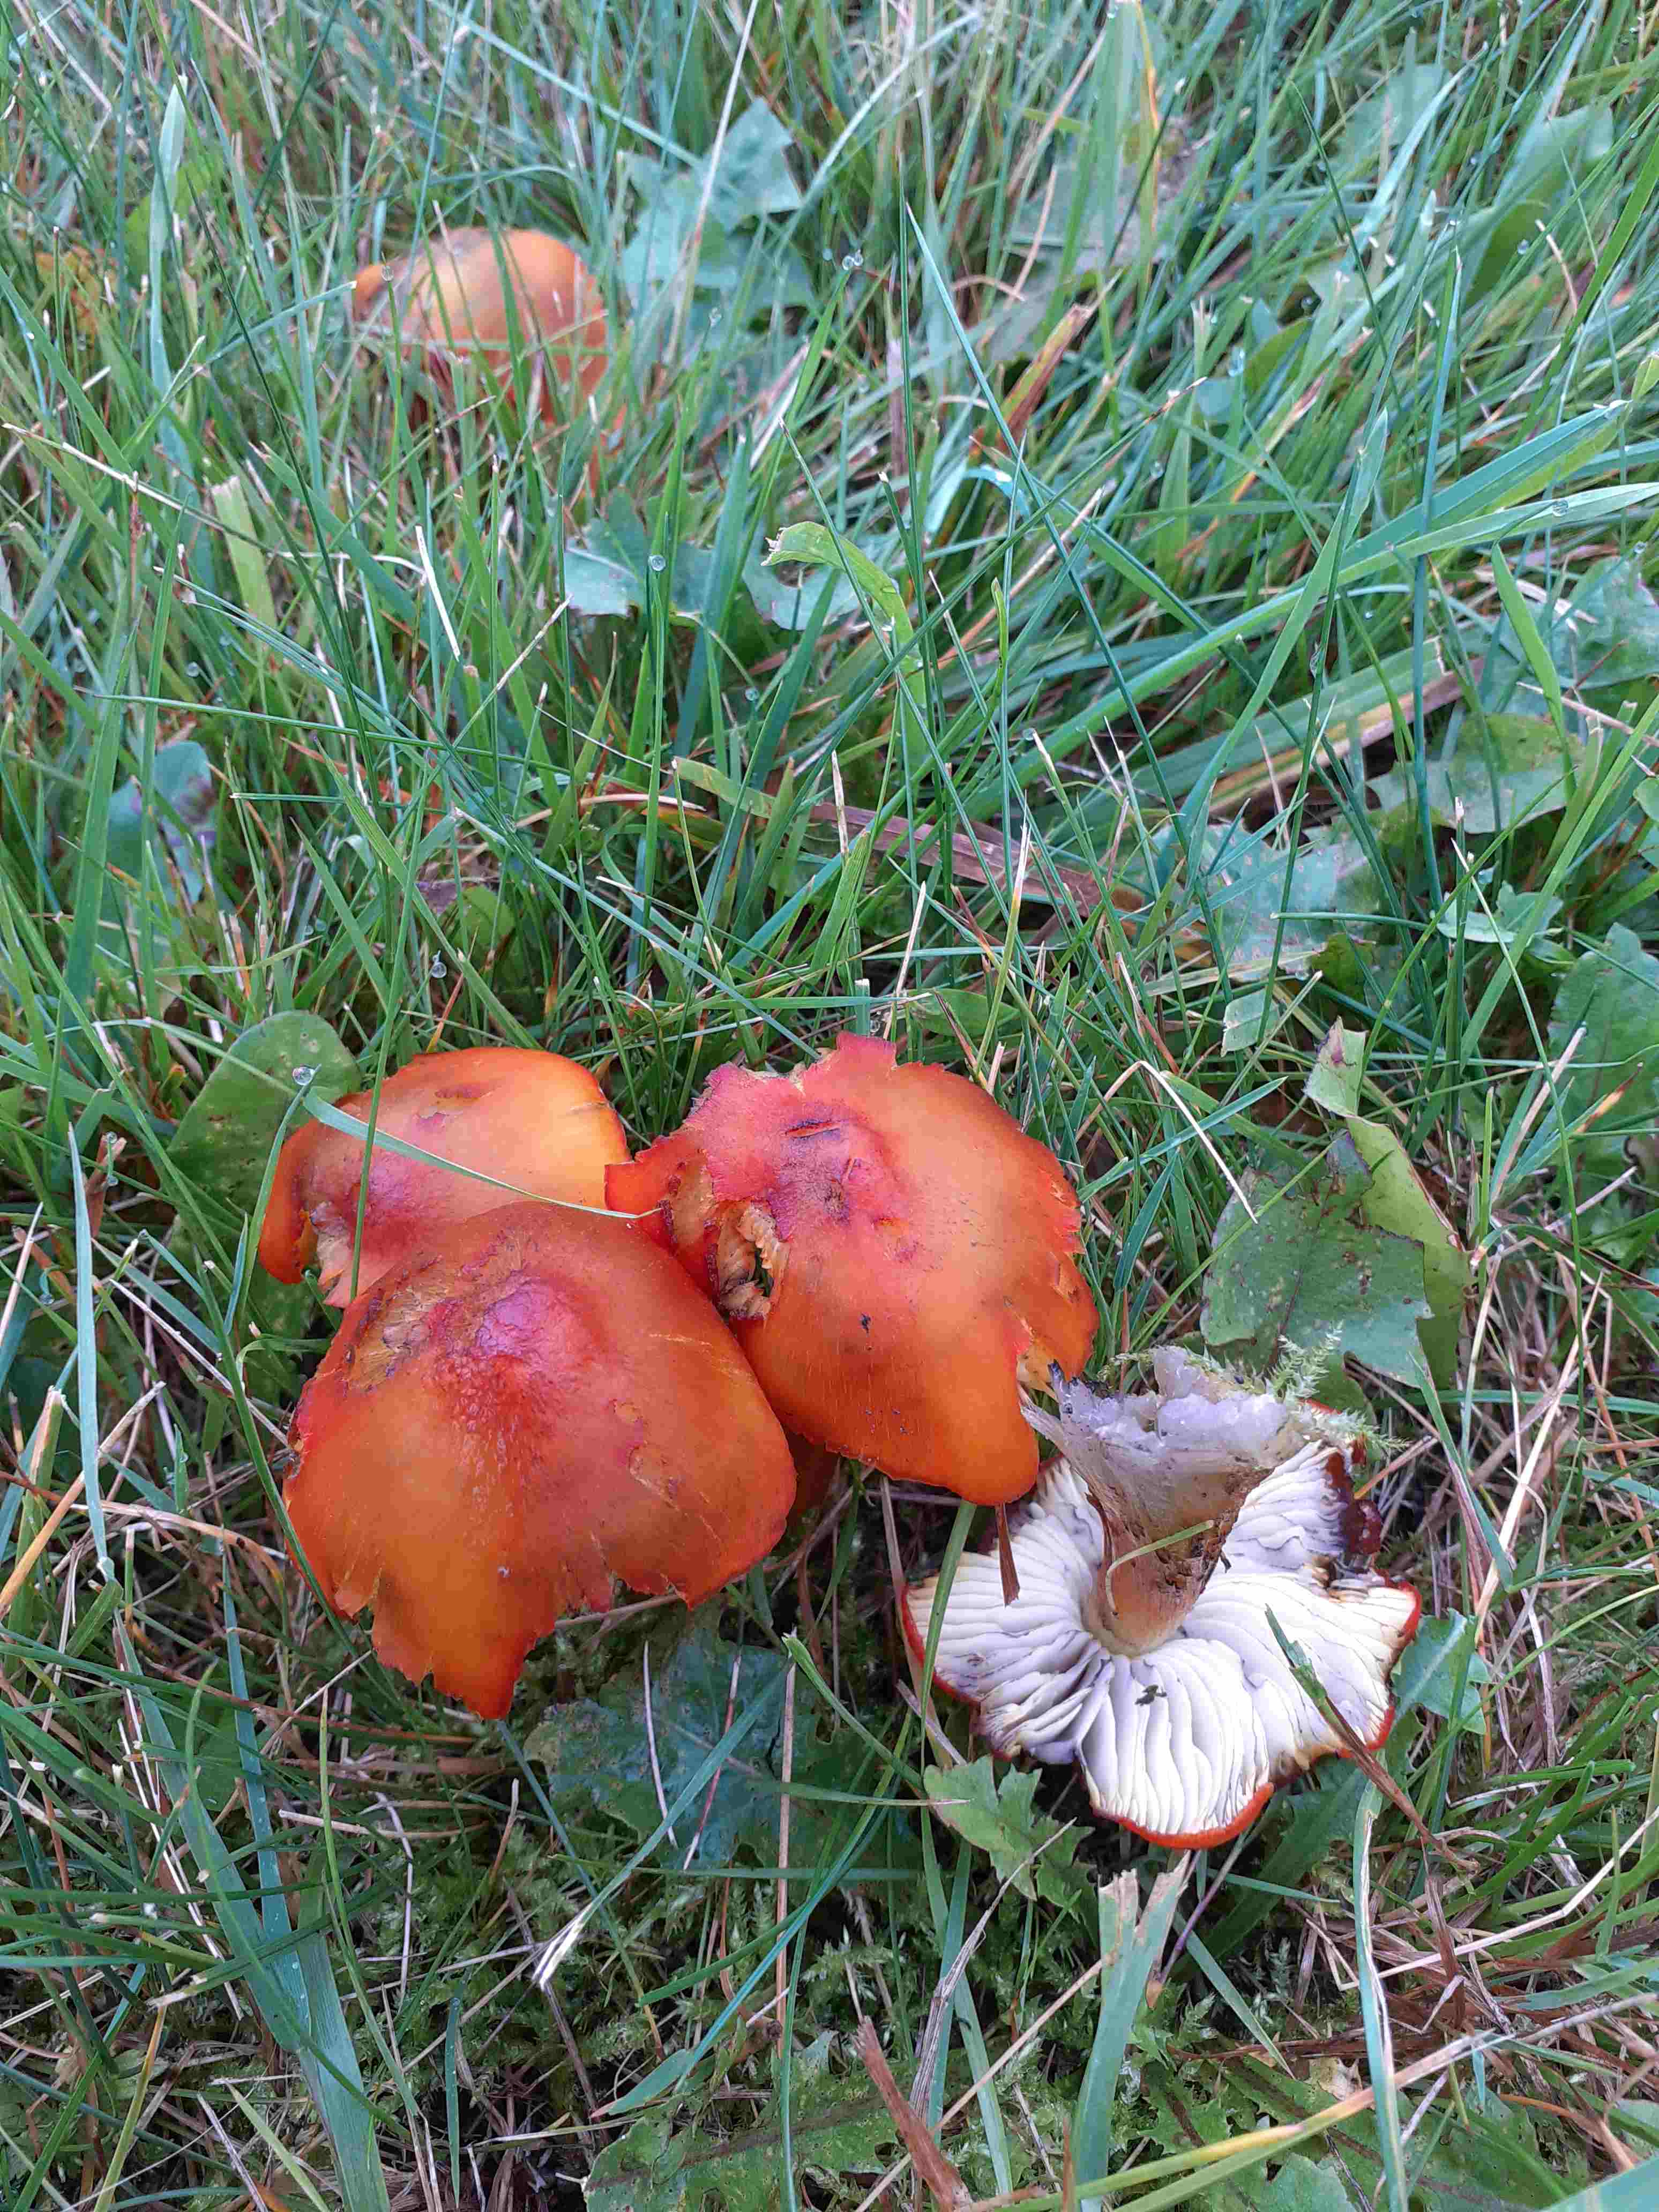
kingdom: Fungi
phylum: Basidiomycota
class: Agaricomycetes
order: Agaricales
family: Hygrophoraceae
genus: Hygrocybe
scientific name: Hygrocybe conica
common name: kegle-vokshat
